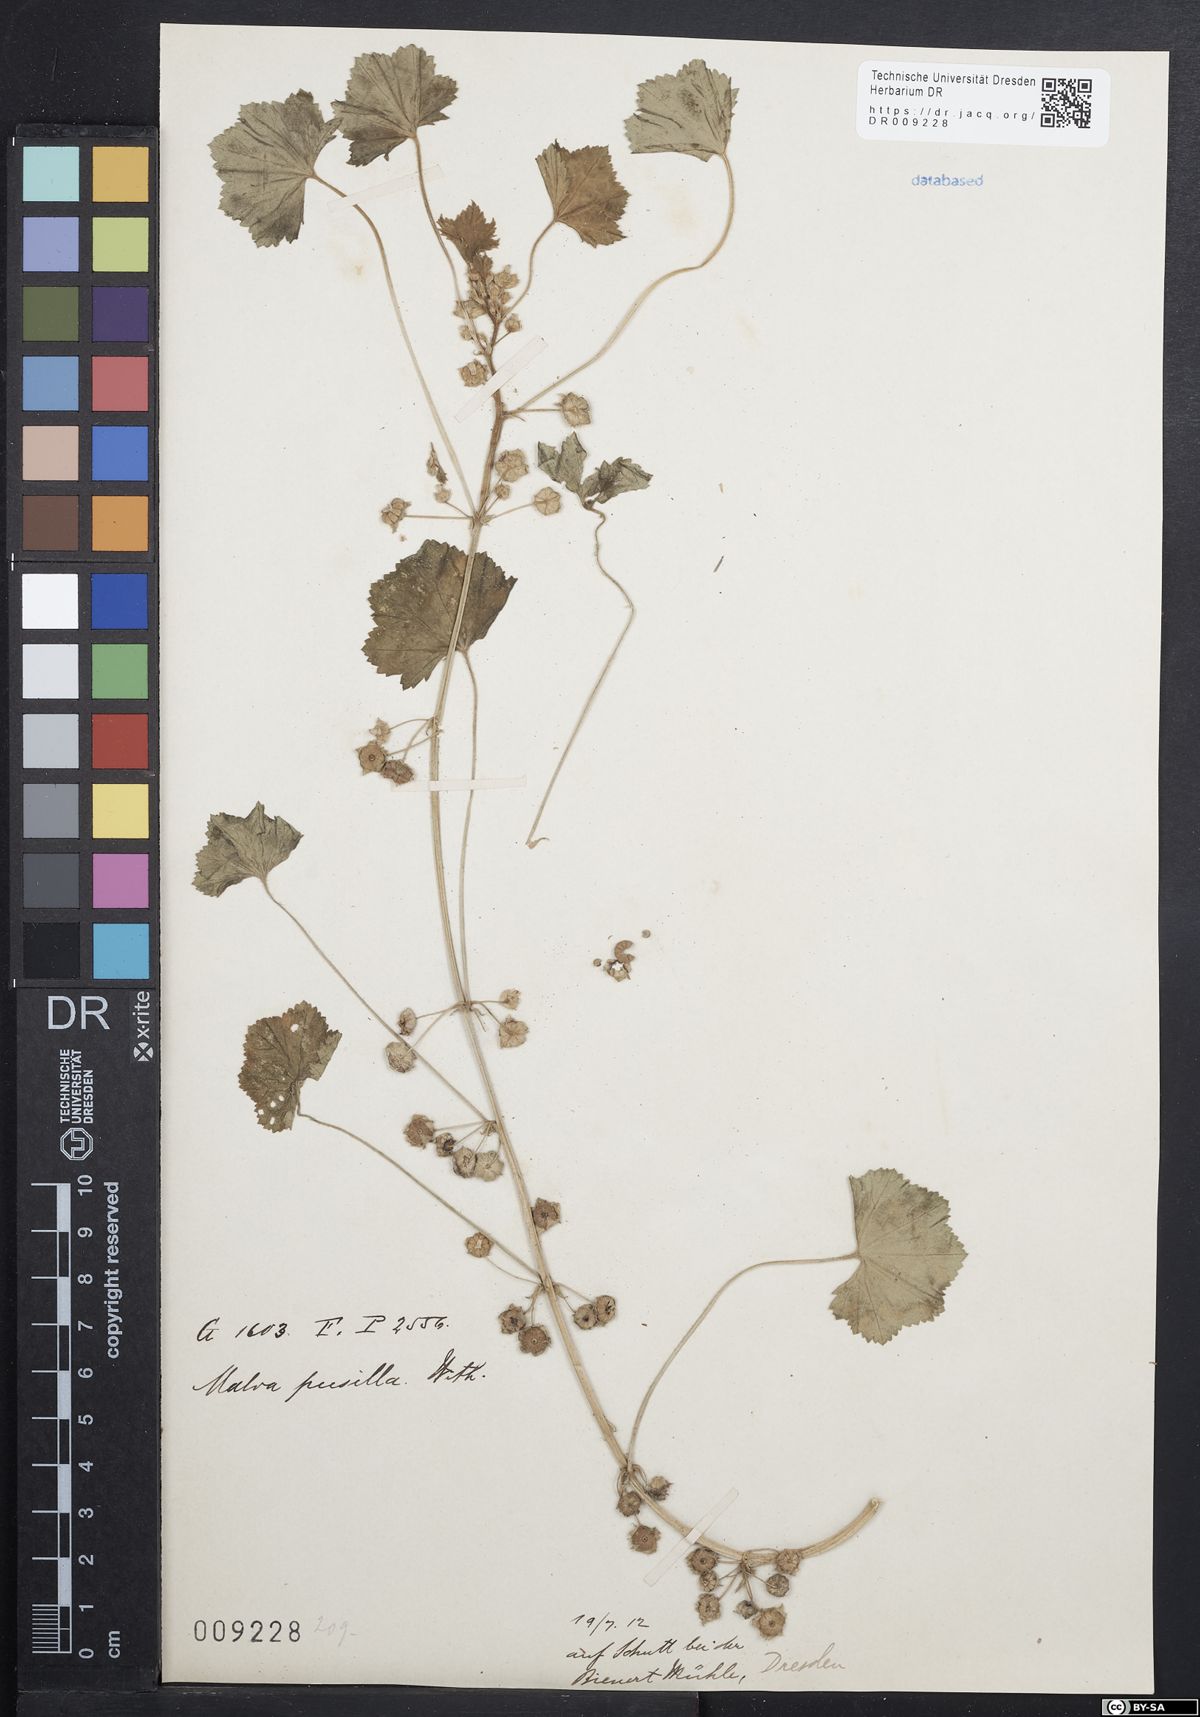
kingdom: Plantae
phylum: Tracheophyta
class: Magnoliopsida
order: Malvales
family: Malvaceae
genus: Malva
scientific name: Malva pusilla
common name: Small mallow
